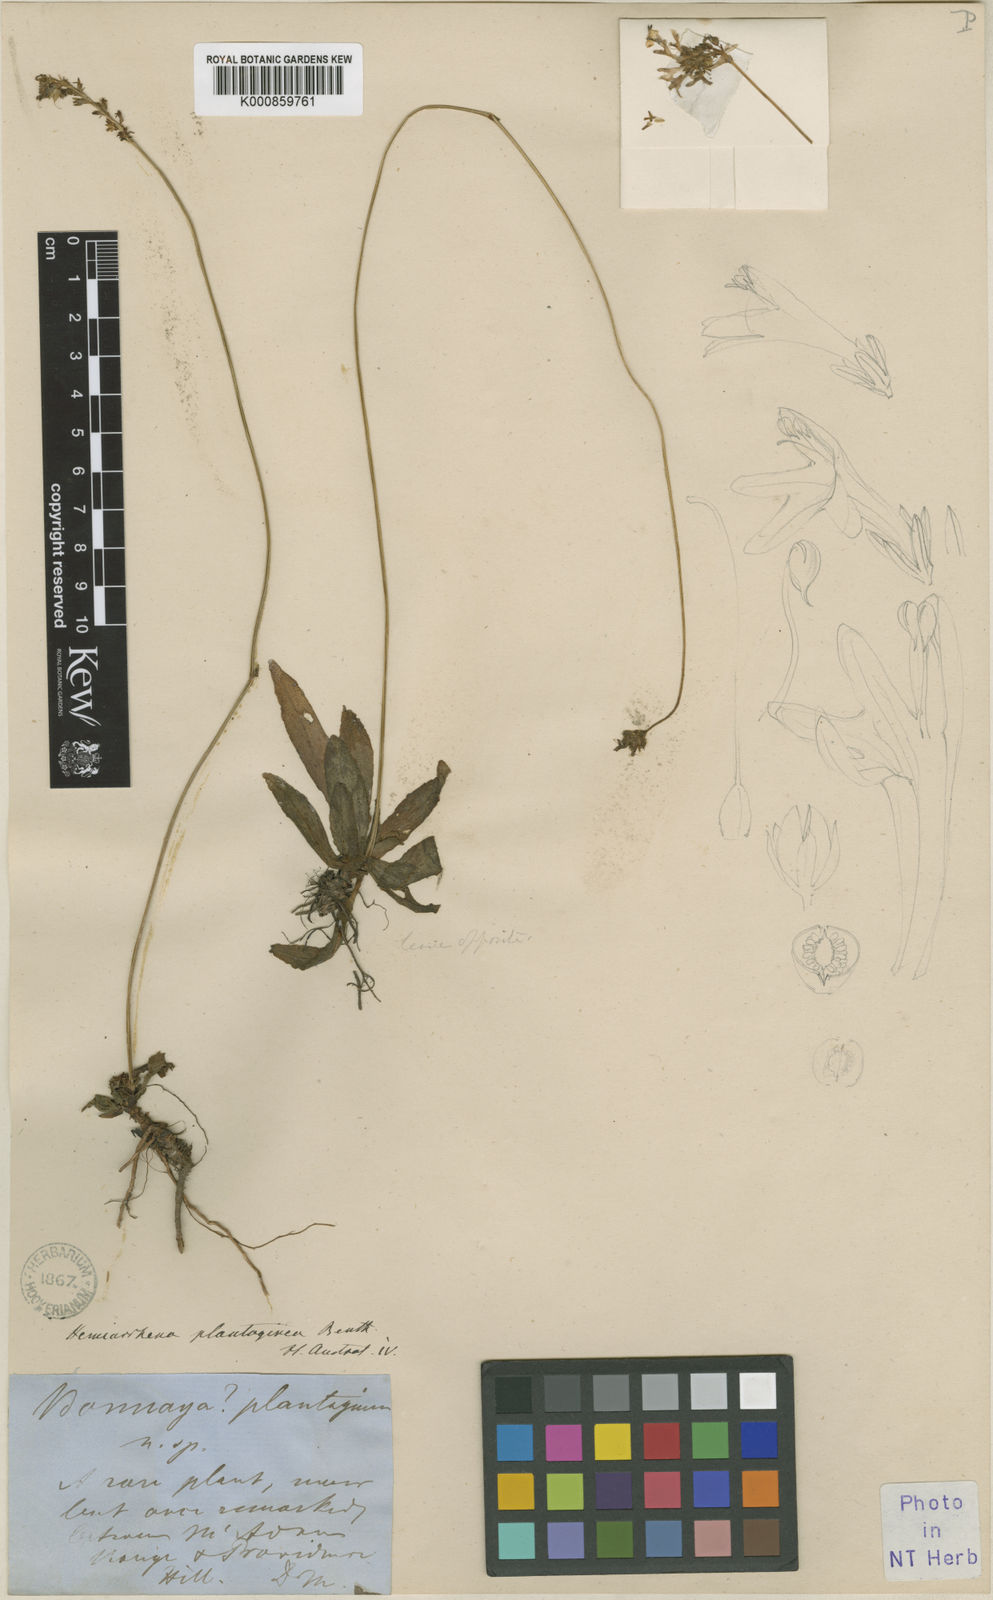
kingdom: Plantae
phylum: Tracheophyta
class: Magnoliopsida
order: Lamiales
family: Linderniaceae
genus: Hemiarrhena
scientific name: Hemiarrhena
